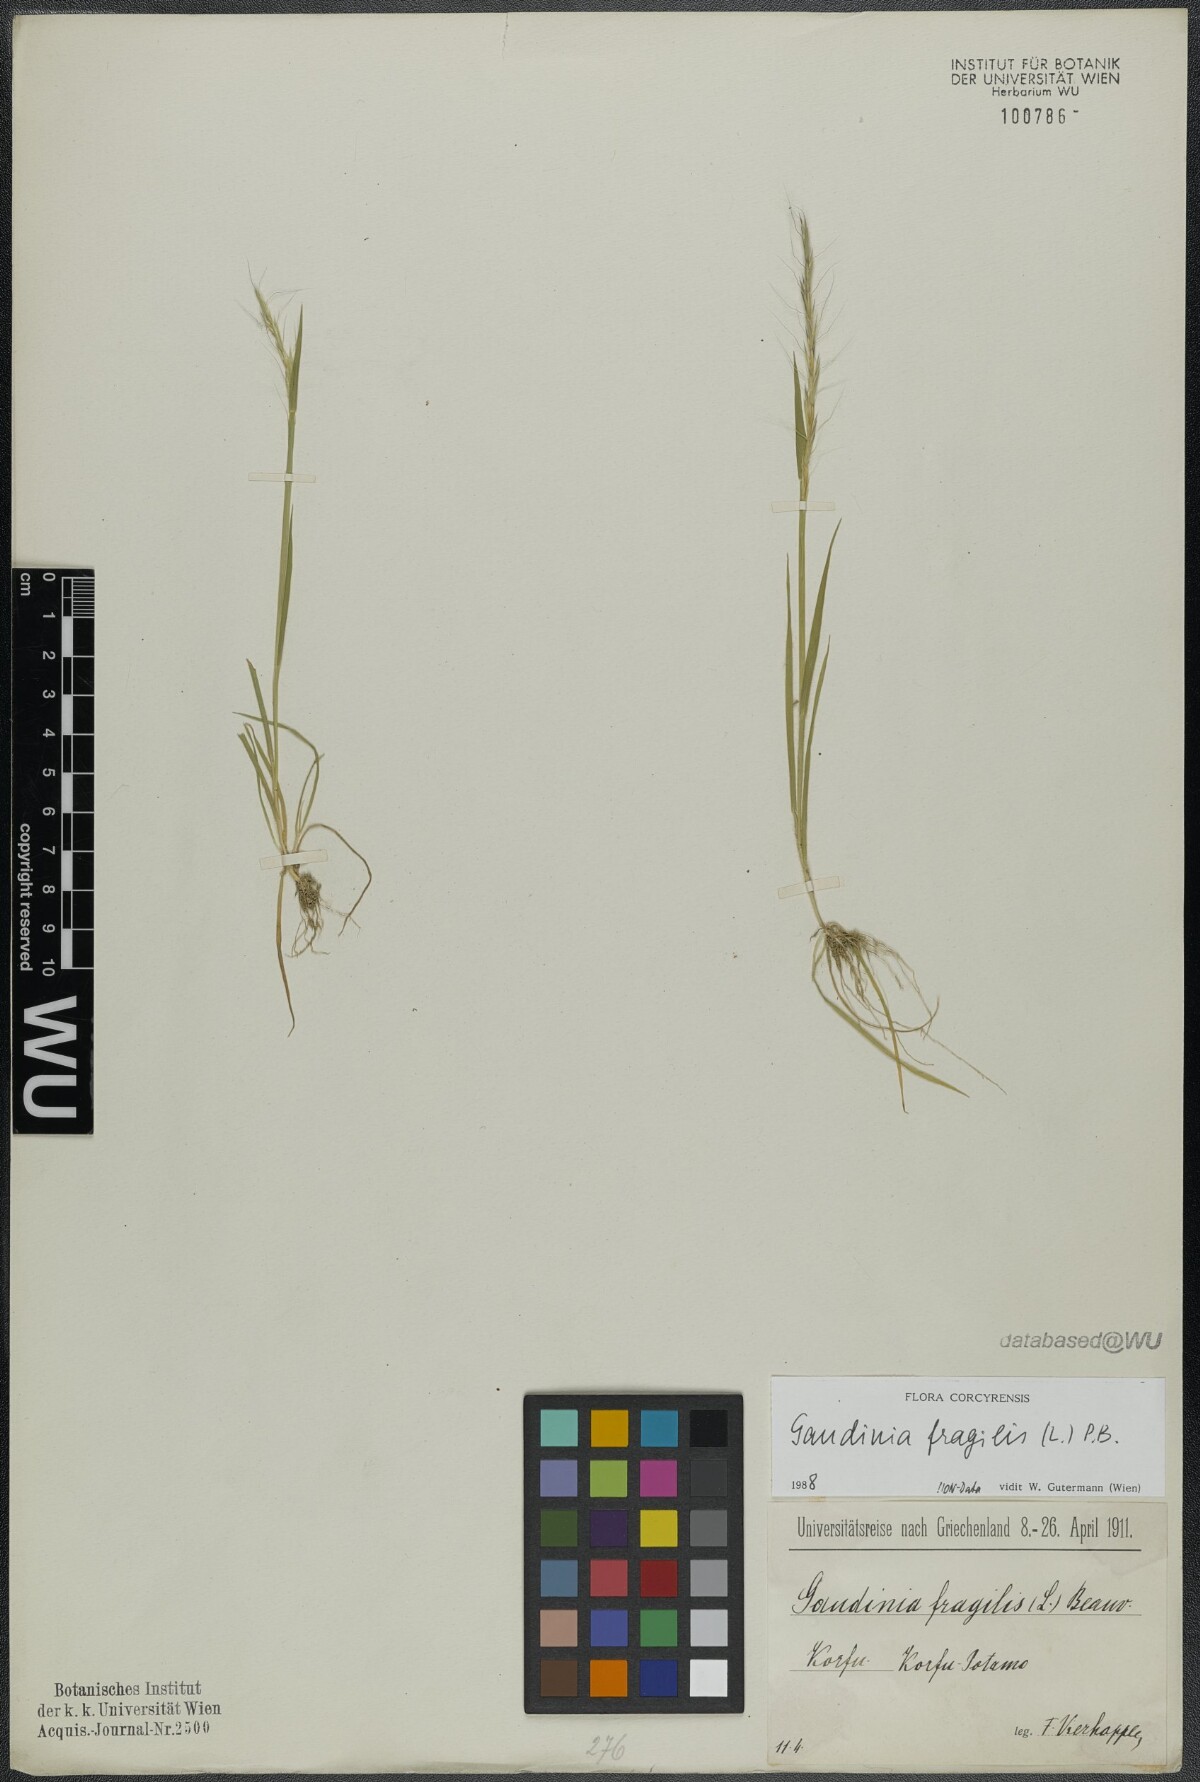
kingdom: Plantae
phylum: Tracheophyta
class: Liliopsida
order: Poales
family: Poaceae
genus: Gaudinia
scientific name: Gaudinia fragilis
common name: French oat-grass
